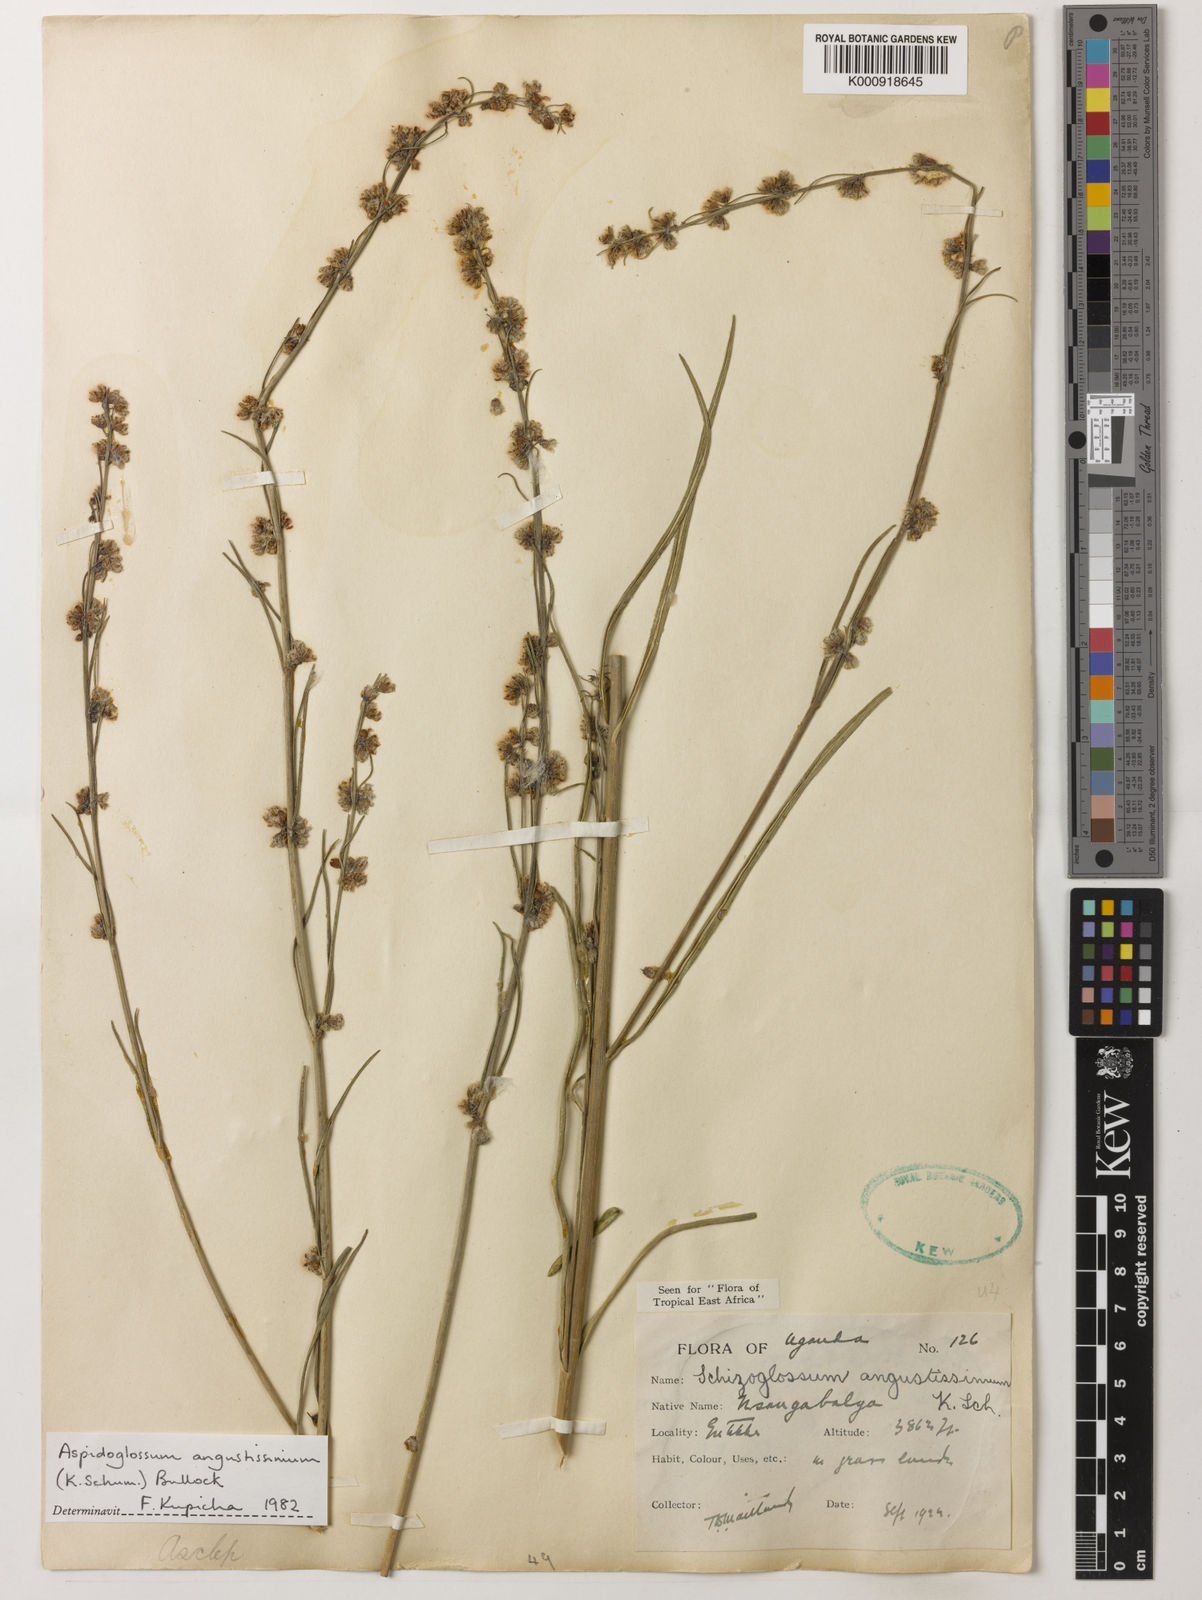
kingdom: Plantae
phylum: Tracheophyta
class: Magnoliopsida
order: Gentianales
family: Apocynaceae
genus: Aspidoglossum
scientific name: Aspidoglossum angustissimum
